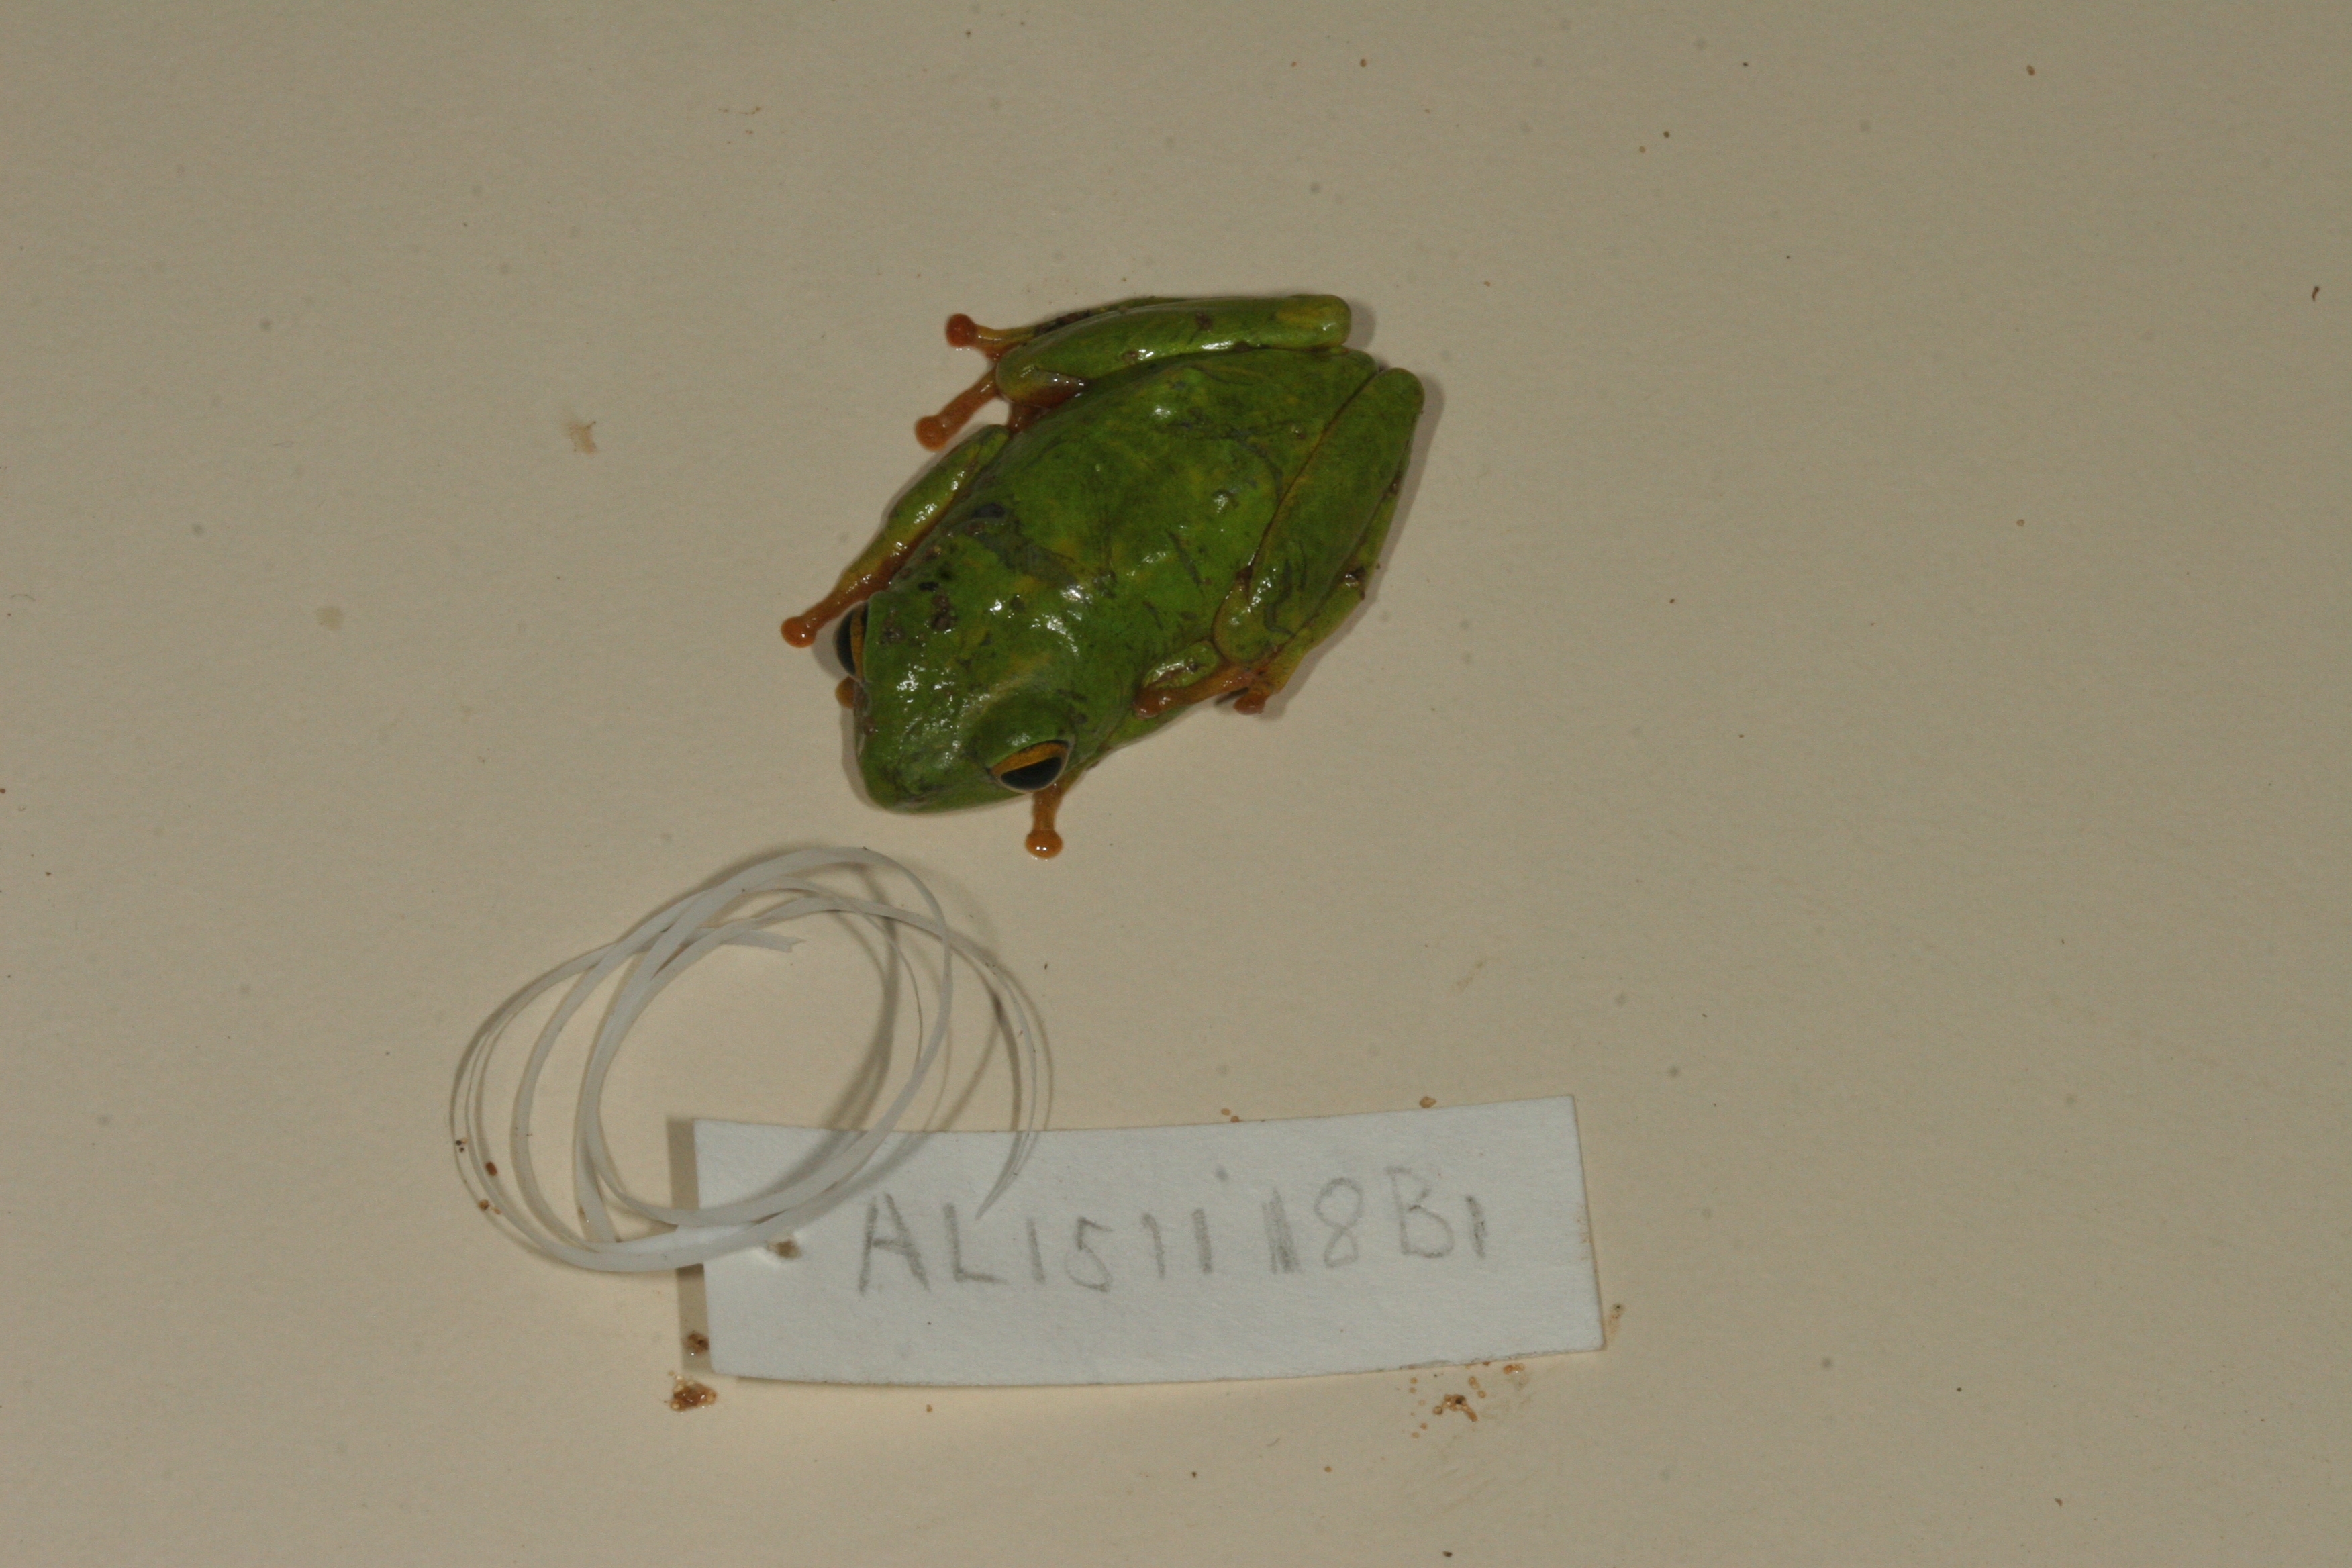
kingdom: Animalia
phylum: Chordata
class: Amphibia
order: Anura
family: Hyperoliidae
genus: Hyperolius
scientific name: Hyperolius tuberilinguis
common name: Tinker reed frog
